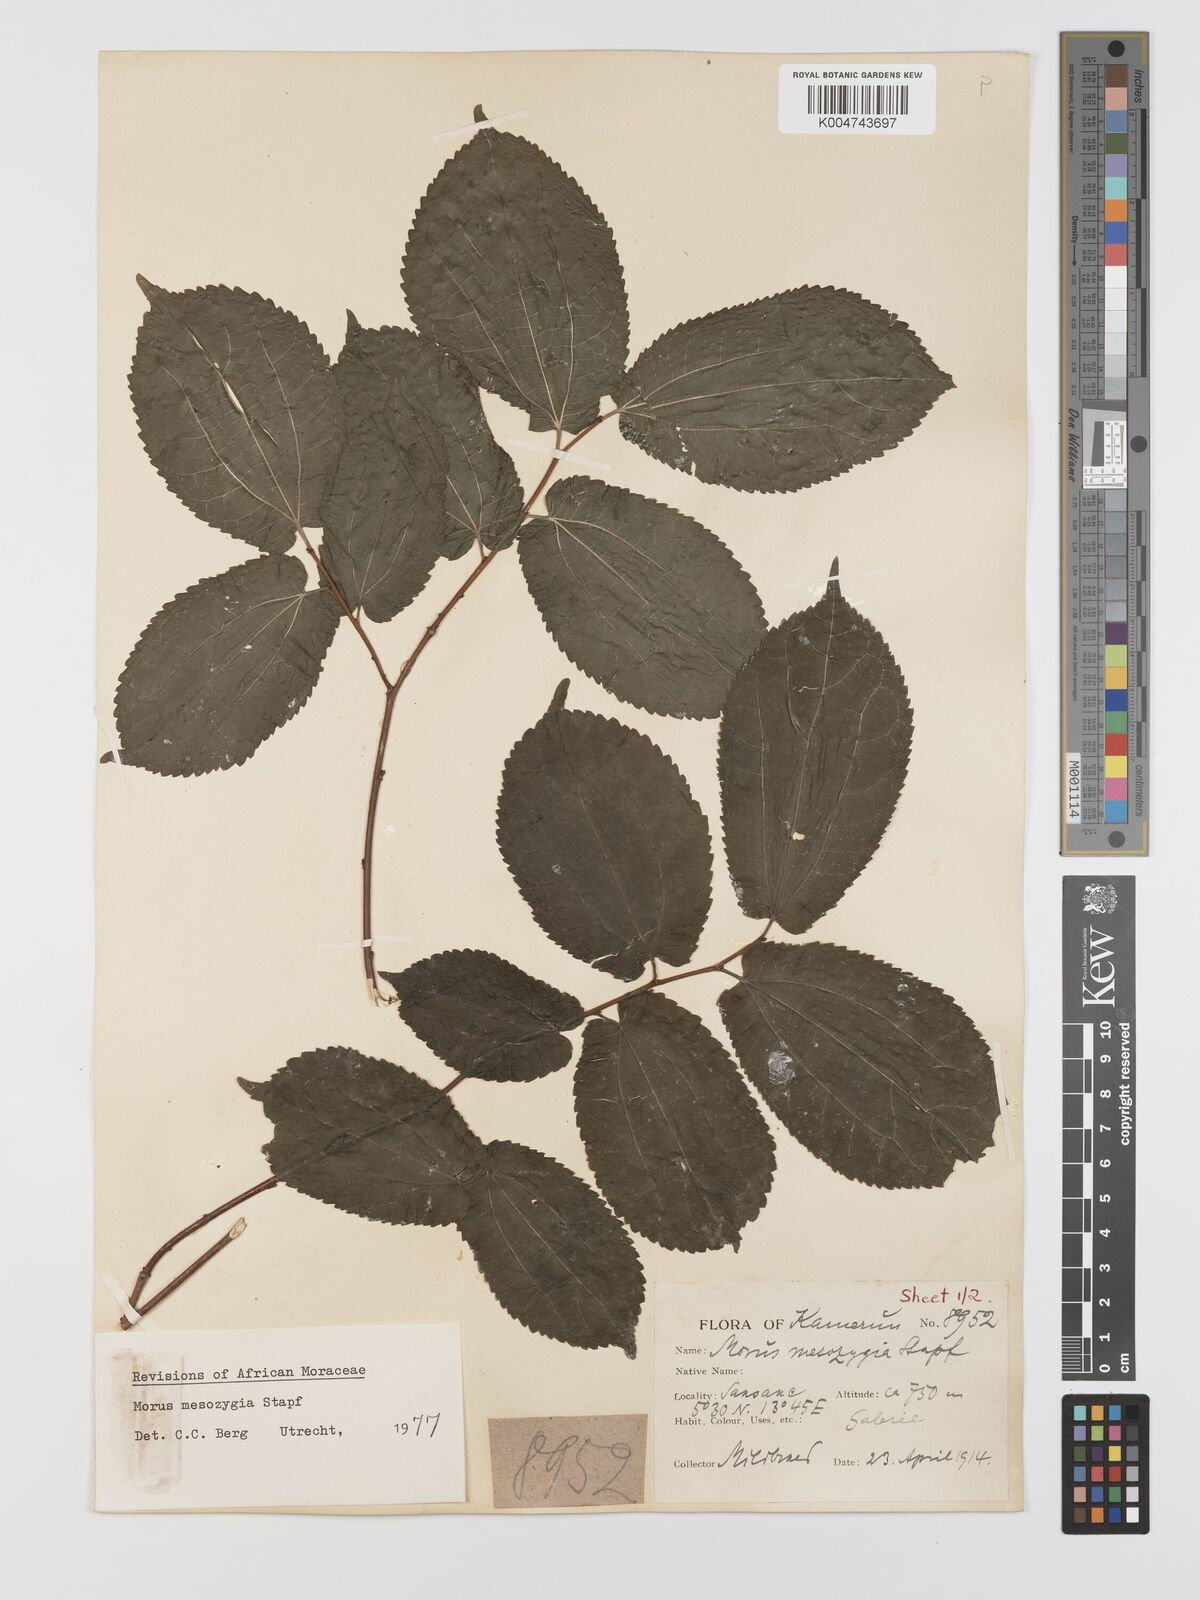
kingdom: Plantae
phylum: Tracheophyta
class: Magnoliopsida
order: Rosales
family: Moraceae
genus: Afromorus
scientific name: Afromorus mesozygia
